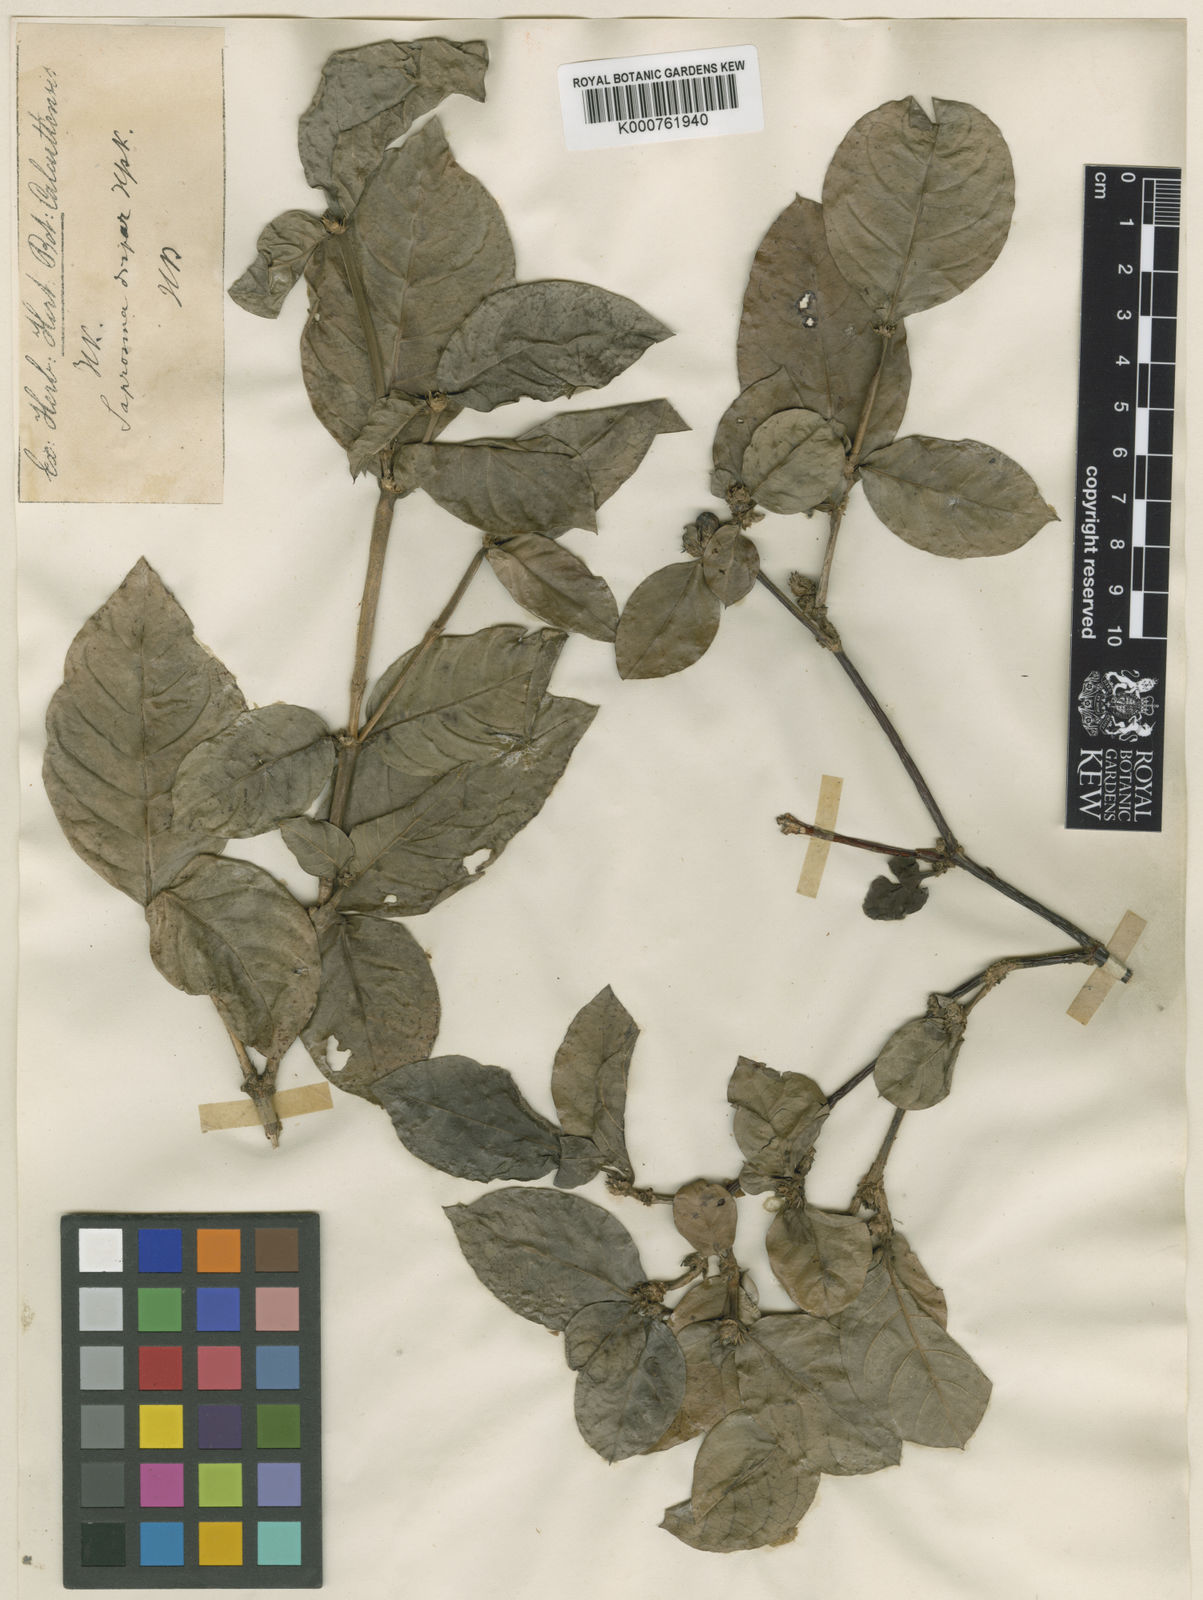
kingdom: Plantae
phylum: Tracheophyta
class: Magnoliopsida
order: Gentianales
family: Rubiaceae
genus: Saprosma
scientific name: Saprosma dispar
